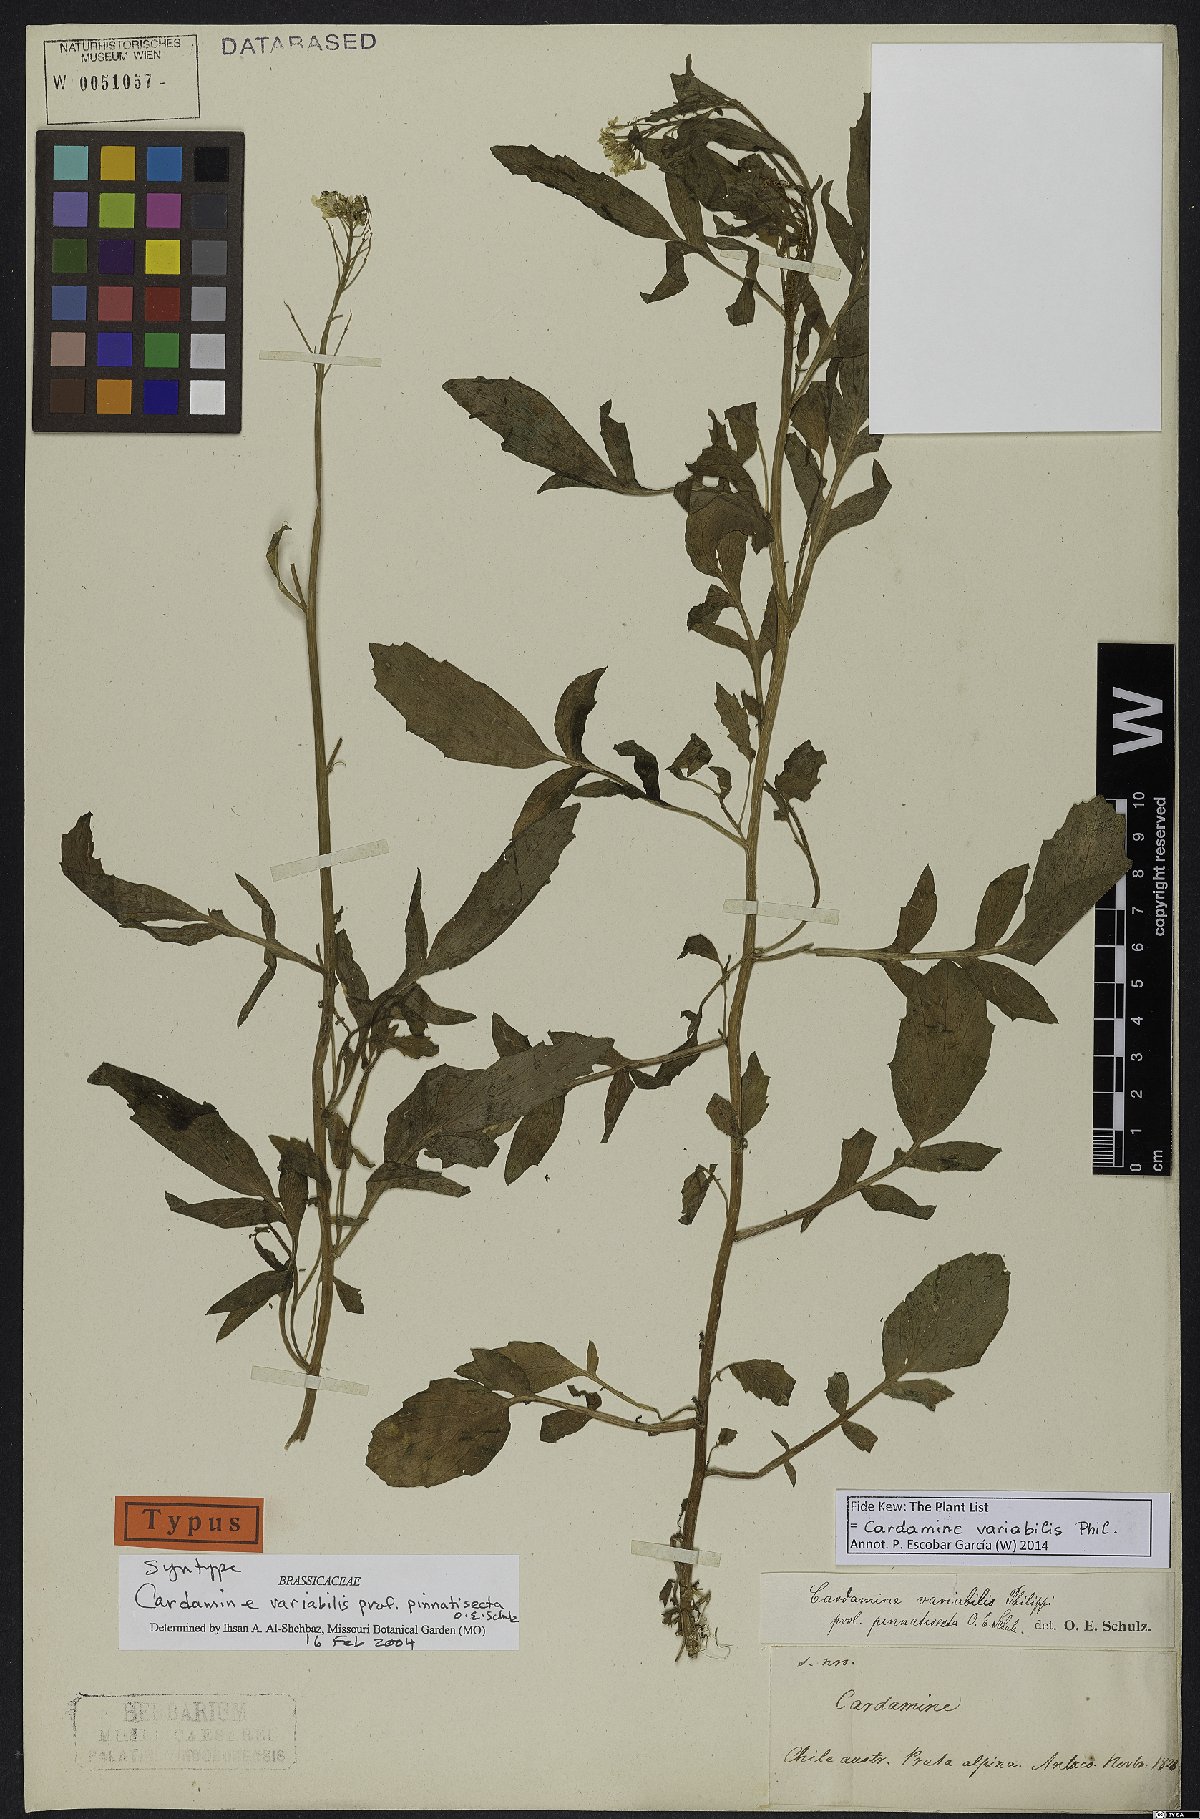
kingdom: Plantae
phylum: Tracheophyta
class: Magnoliopsida
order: Brassicales
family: Brassicaceae
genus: Cardamine
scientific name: Cardamine variabilis
